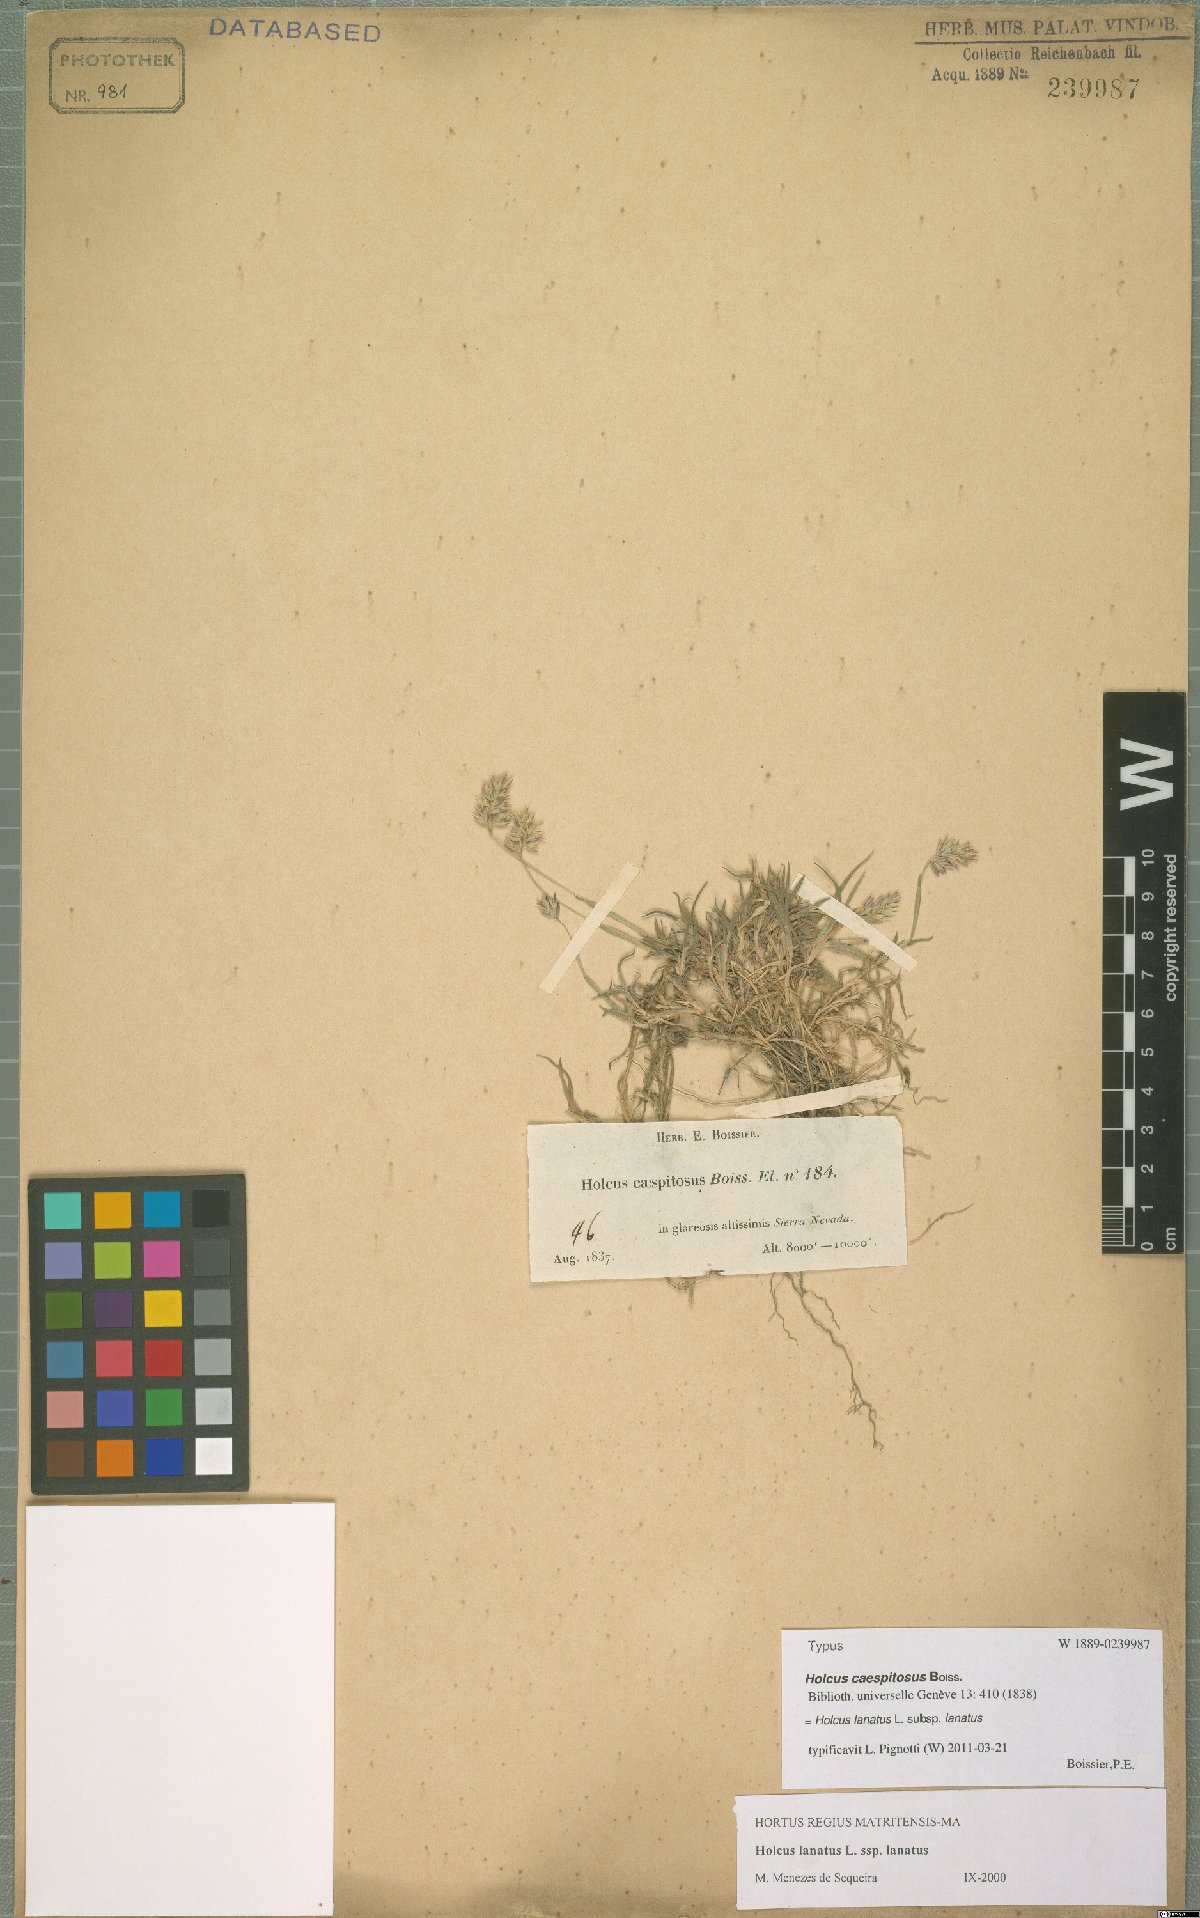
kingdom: Plantae
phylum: Tracheophyta
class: Liliopsida
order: Poales
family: Poaceae
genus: Holcus
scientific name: Holcus lanatus
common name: Yorkshire-fog
